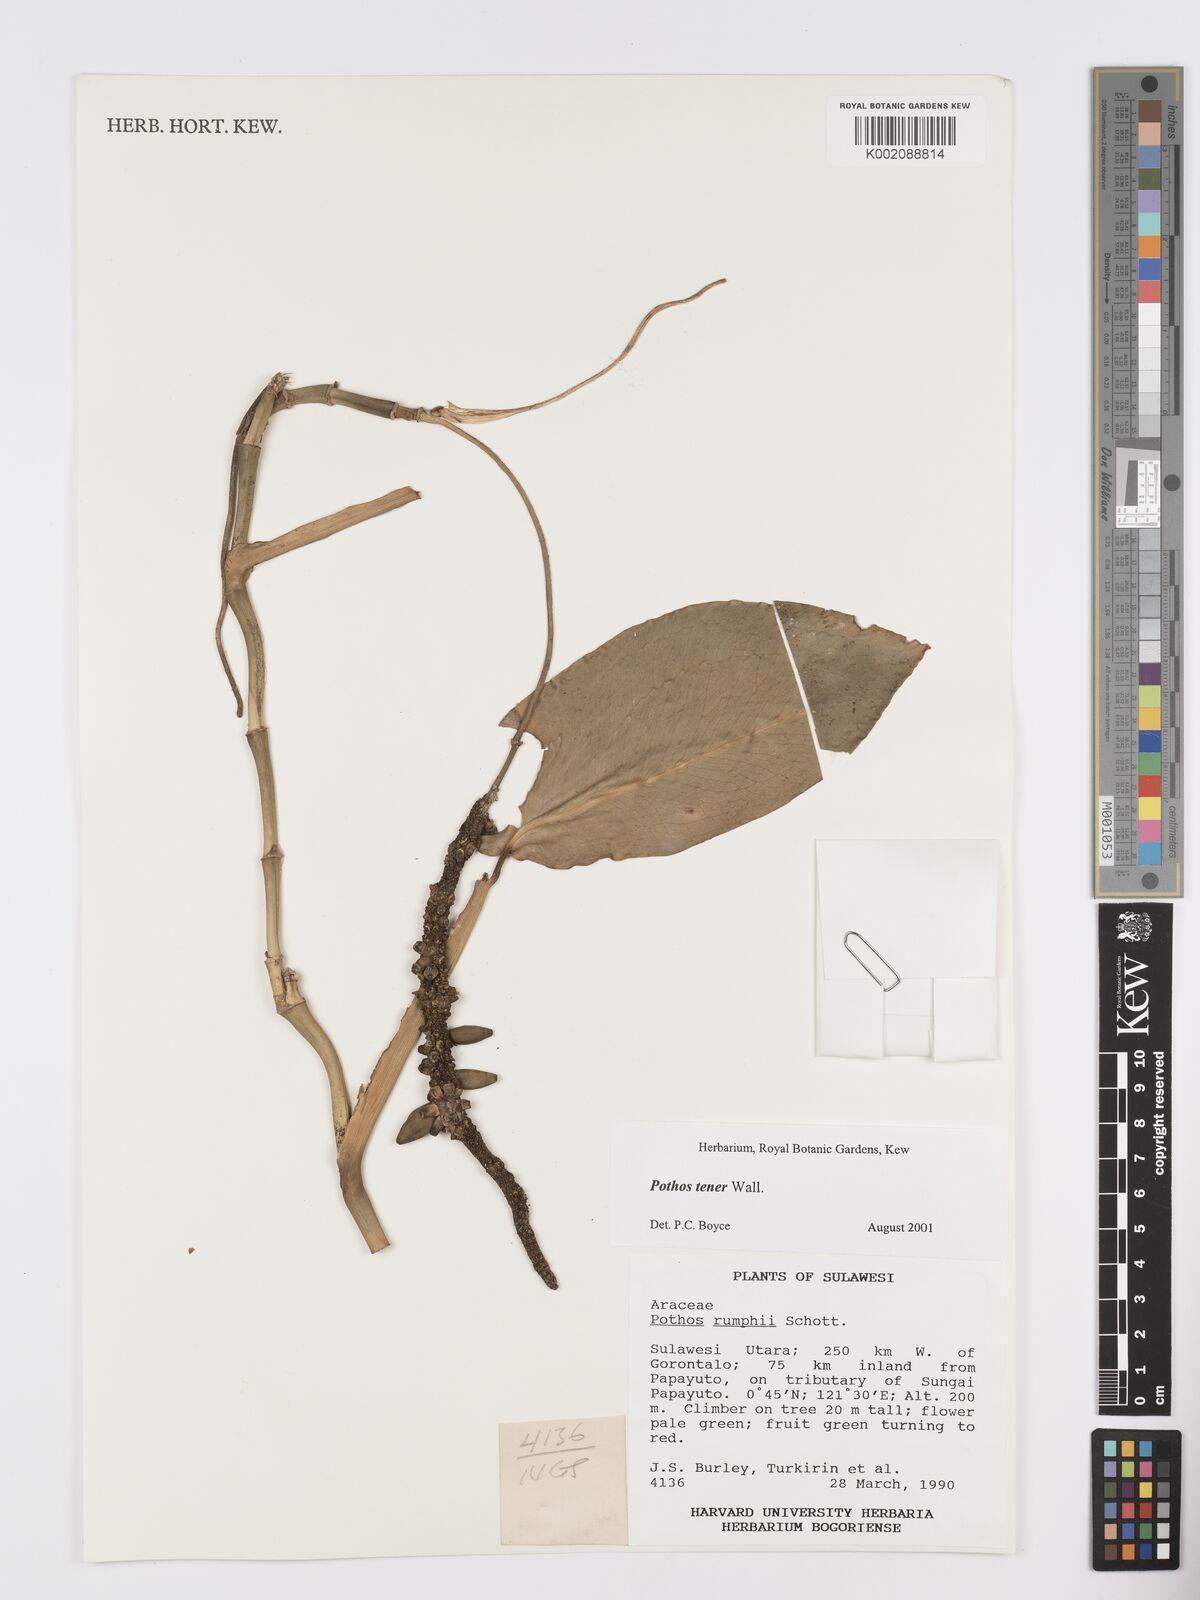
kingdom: Plantae
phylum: Tracheophyta
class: Liliopsida
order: Alismatales
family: Araceae
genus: Pothos
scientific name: Pothos tener
